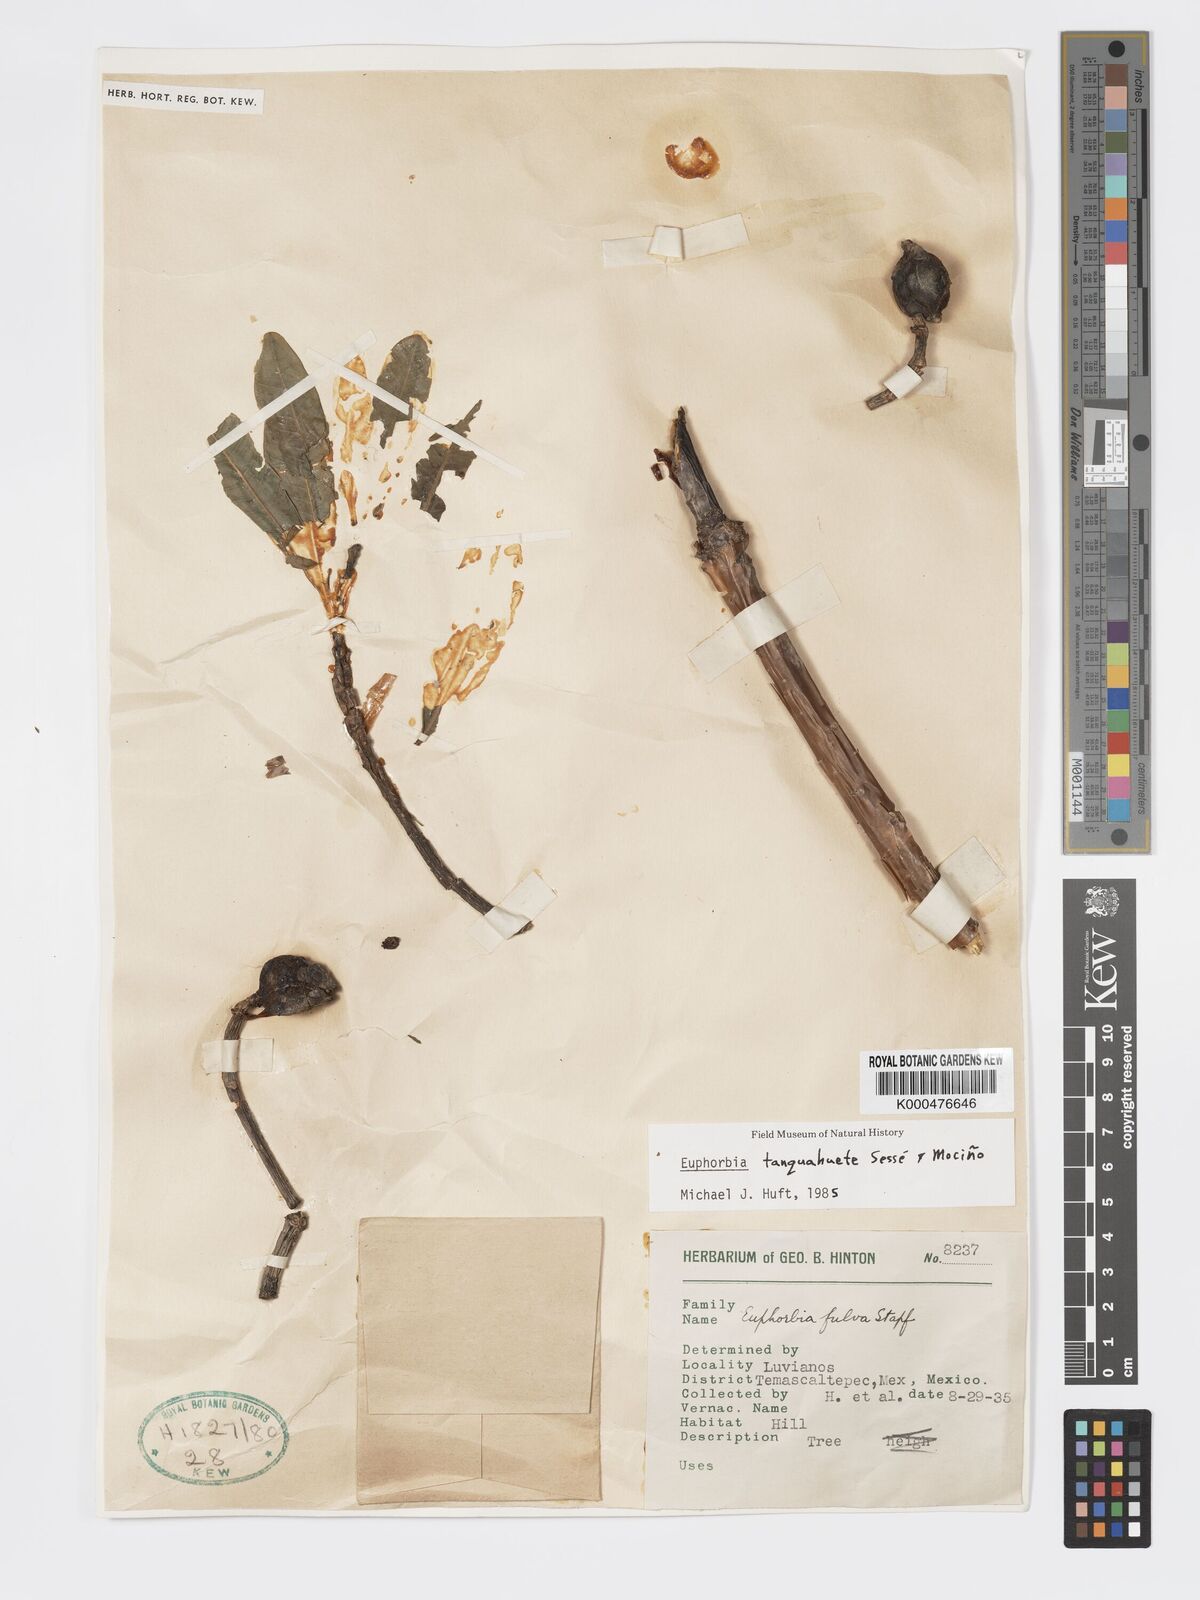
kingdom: Plantae
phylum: Tracheophyta
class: Magnoliopsida
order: Malpighiales
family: Euphorbiaceae
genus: Euphorbia
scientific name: Euphorbia
